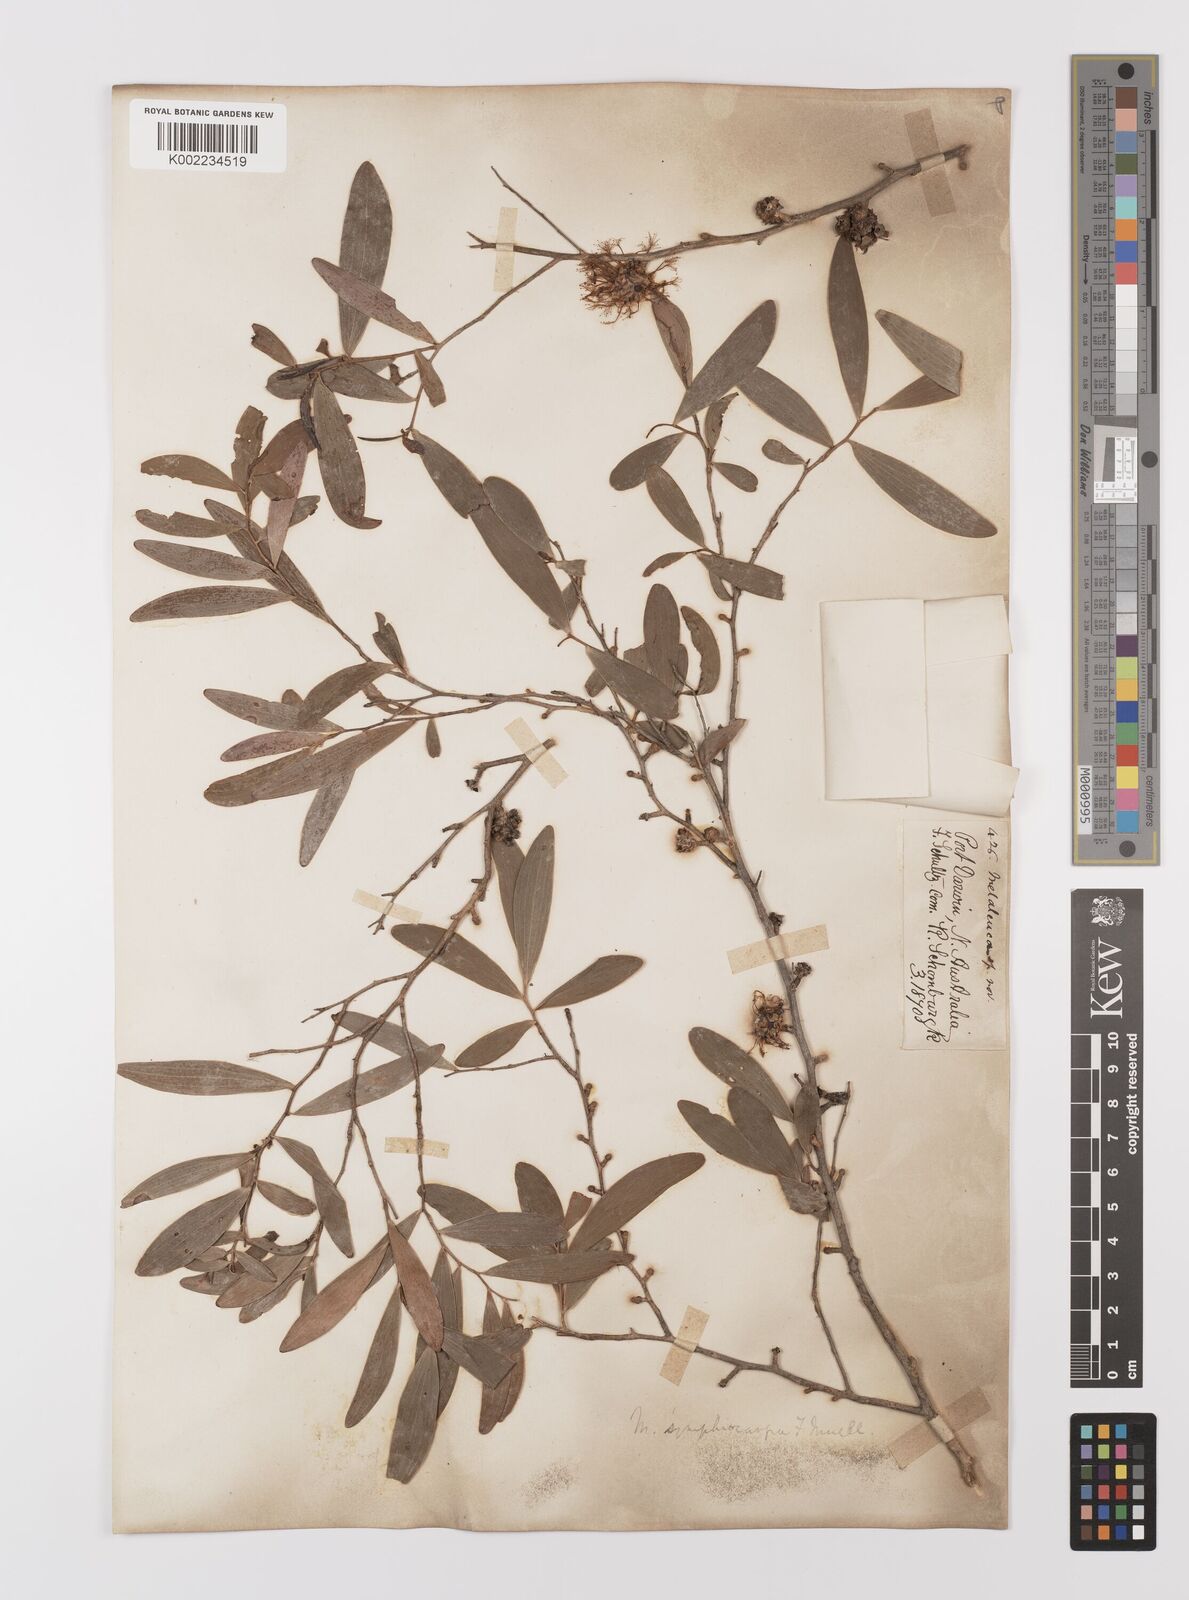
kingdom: Plantae
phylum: Tracheophyta
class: Magnoliopsida
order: Myrtales
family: Myrtaceae
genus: Asteromyrtus
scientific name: Asteromyrtus symphyocarpa
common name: Liniment-tree
